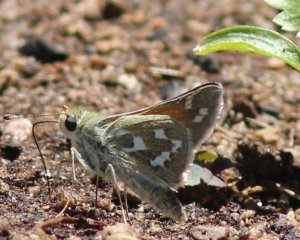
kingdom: Animalia
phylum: Arthropoda
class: Insecta
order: Lepidoptera
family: Hesperiidae
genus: Hesperia
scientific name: Hesperia comma
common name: Western Branded Skipper
